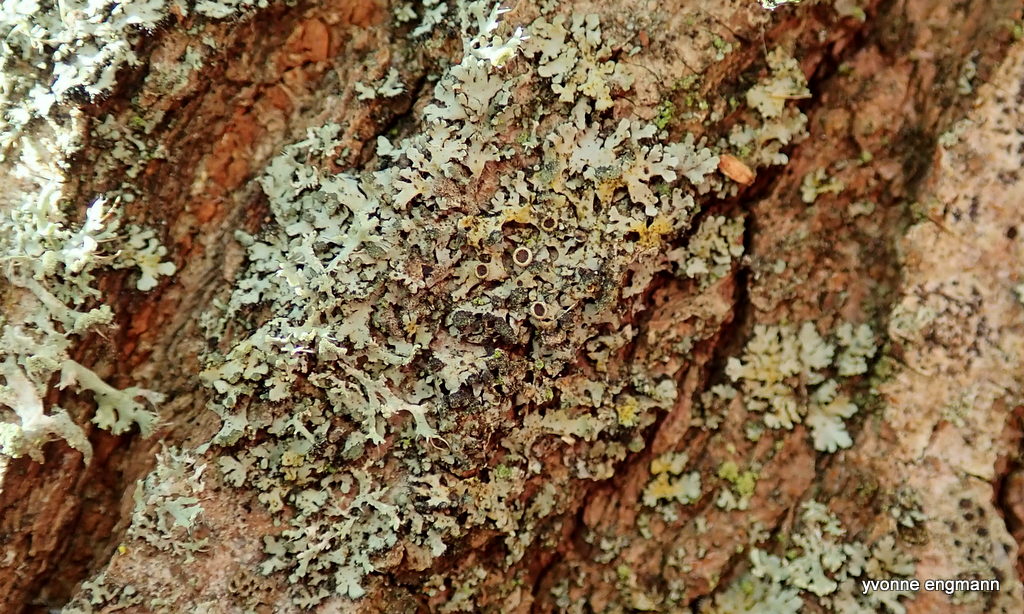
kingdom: Fungi
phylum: Ascomycota
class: Lecanoromycetes
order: Caliciales
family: Physciaceae
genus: Physcia
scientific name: Physcia tenella
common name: spæd rosetlav
